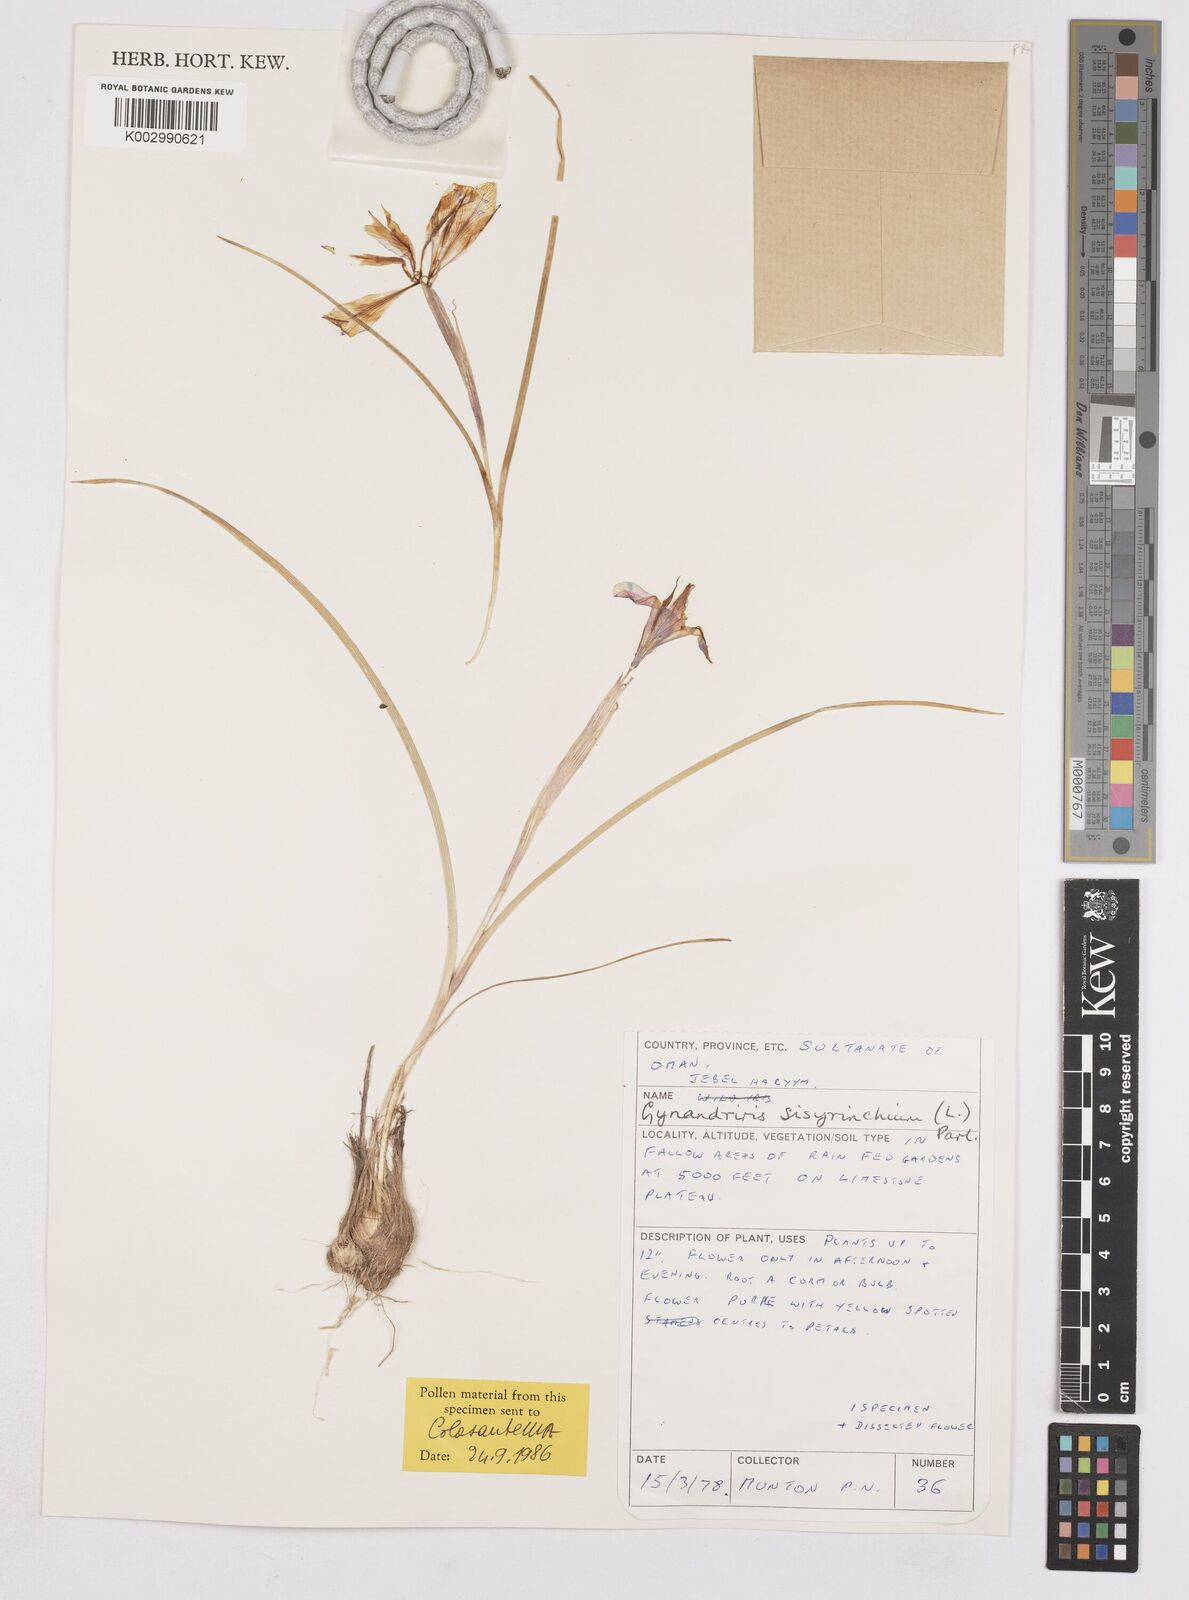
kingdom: Plantae
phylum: Tracheophyta
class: Liliopsida
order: Asparagales
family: Iridaceae
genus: Moraea
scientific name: Moraea sisyrinchium
